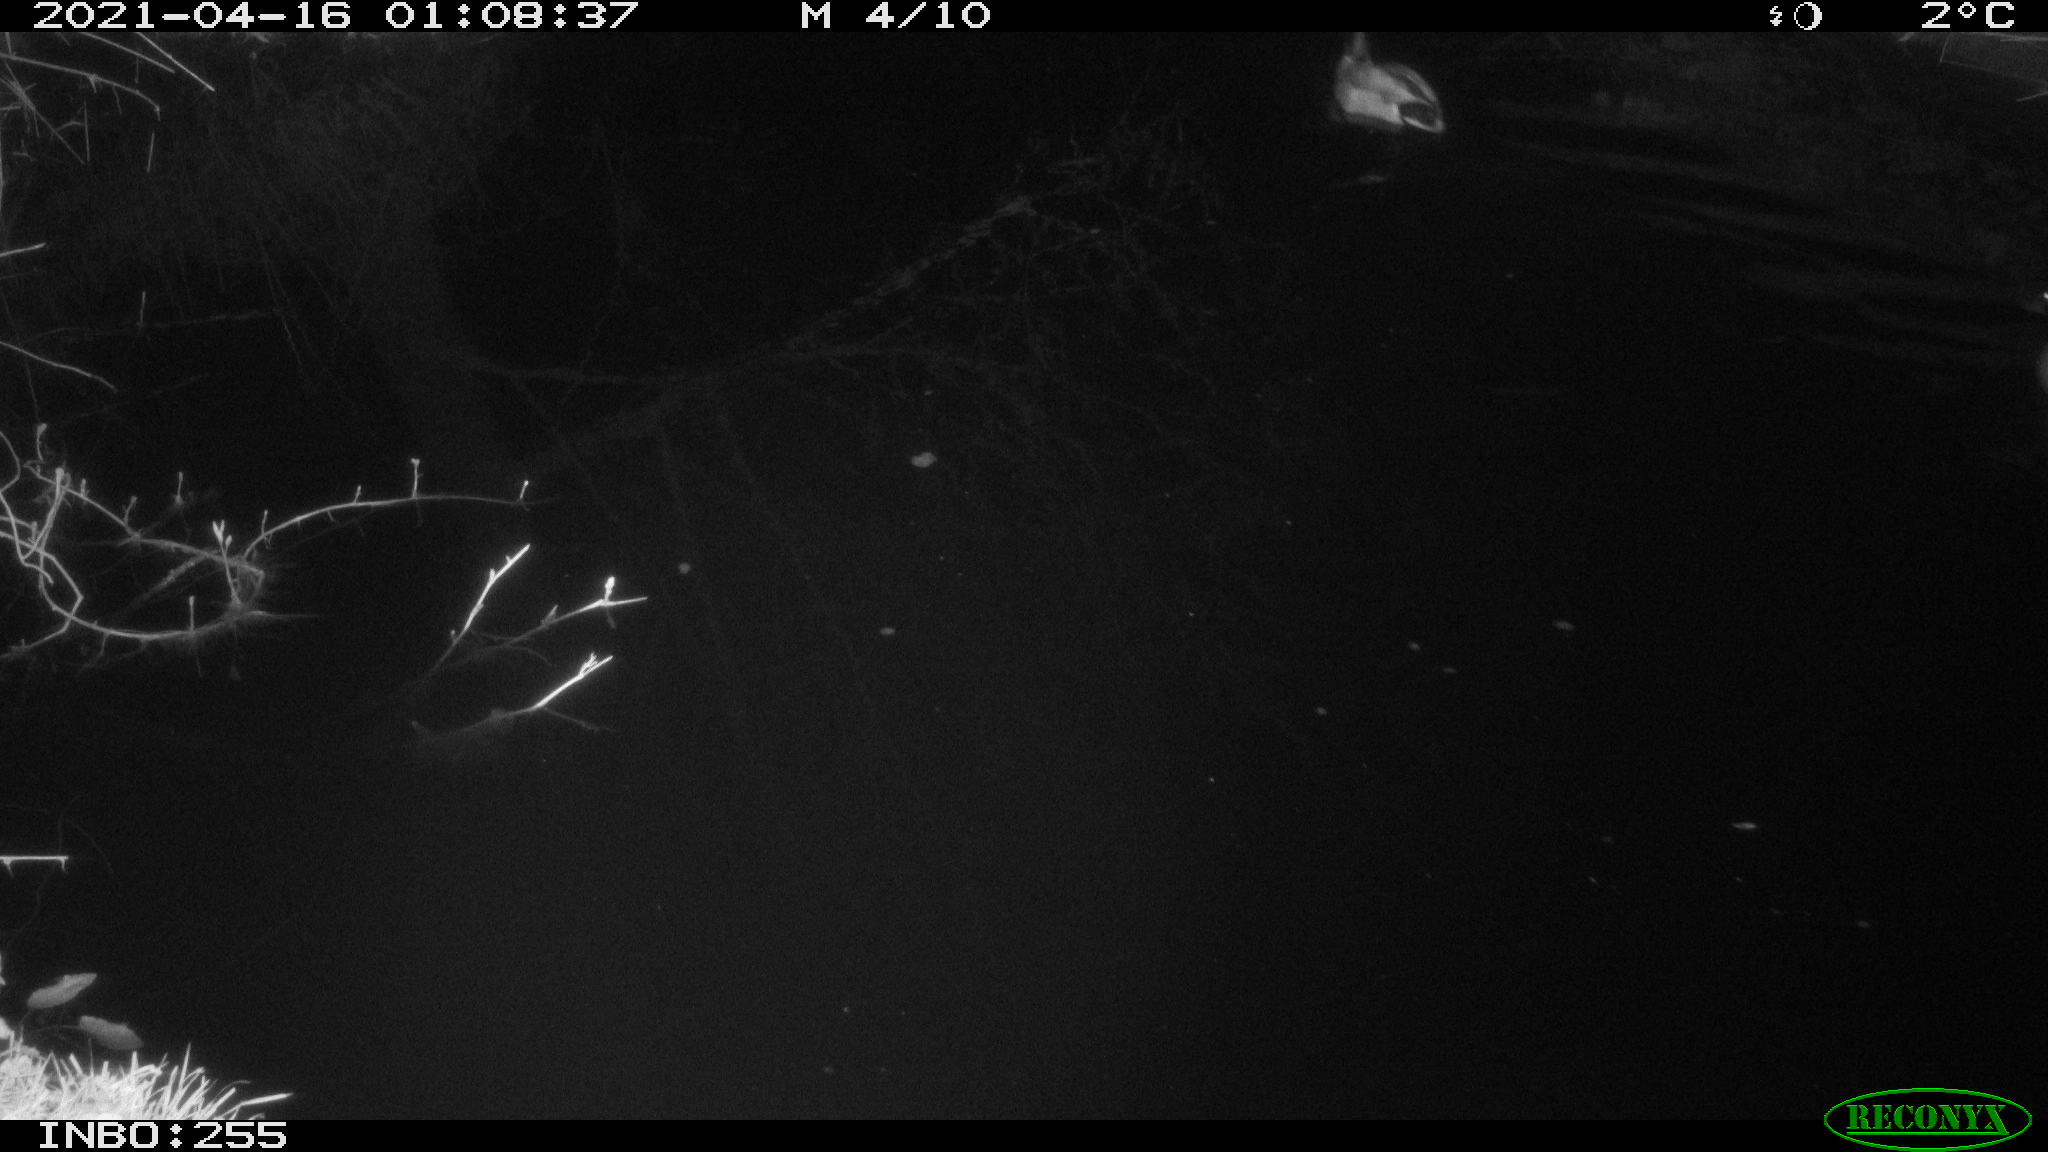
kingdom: Animalia
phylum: Chordata
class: Aves
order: Anseriformes
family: Anatidae
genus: Anas
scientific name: Anas platyrhynchos
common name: Mallard
